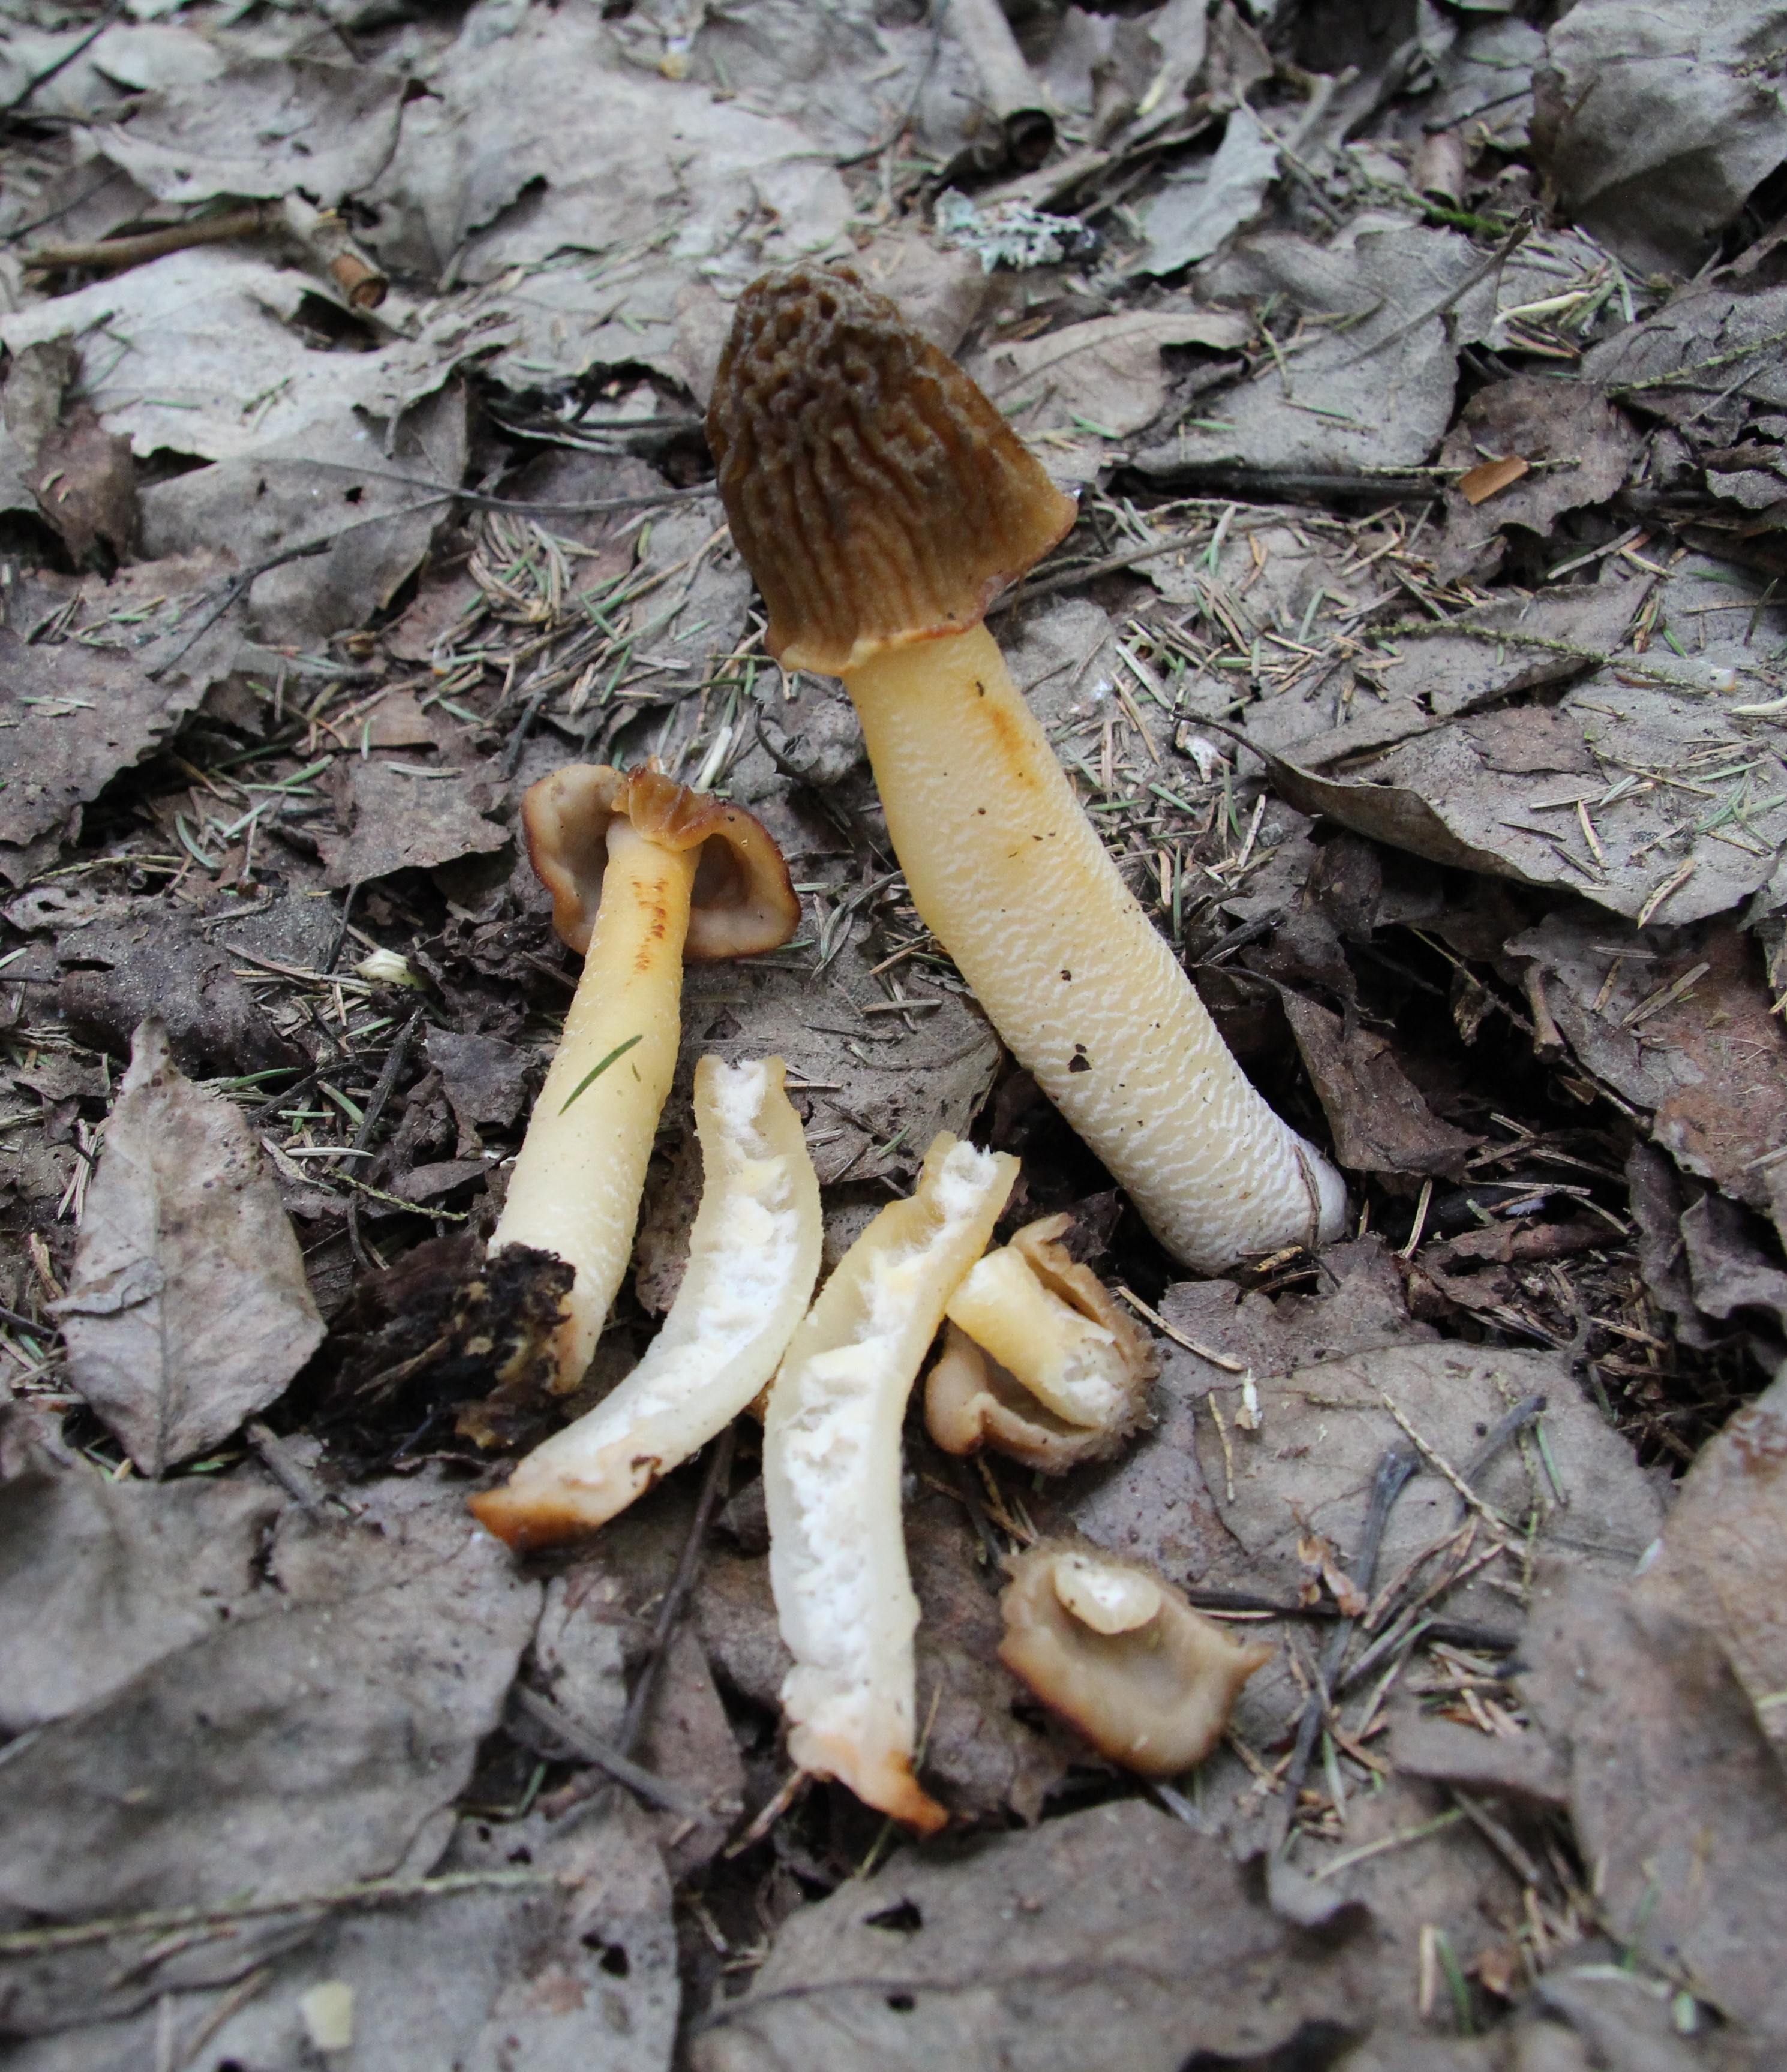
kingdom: Fungi
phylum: Ascomycota
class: Pezizomycetes
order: Pezizales
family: Morchellaceae
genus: Verpa
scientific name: Verpa bohemica
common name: Wrinkled thimble morel
